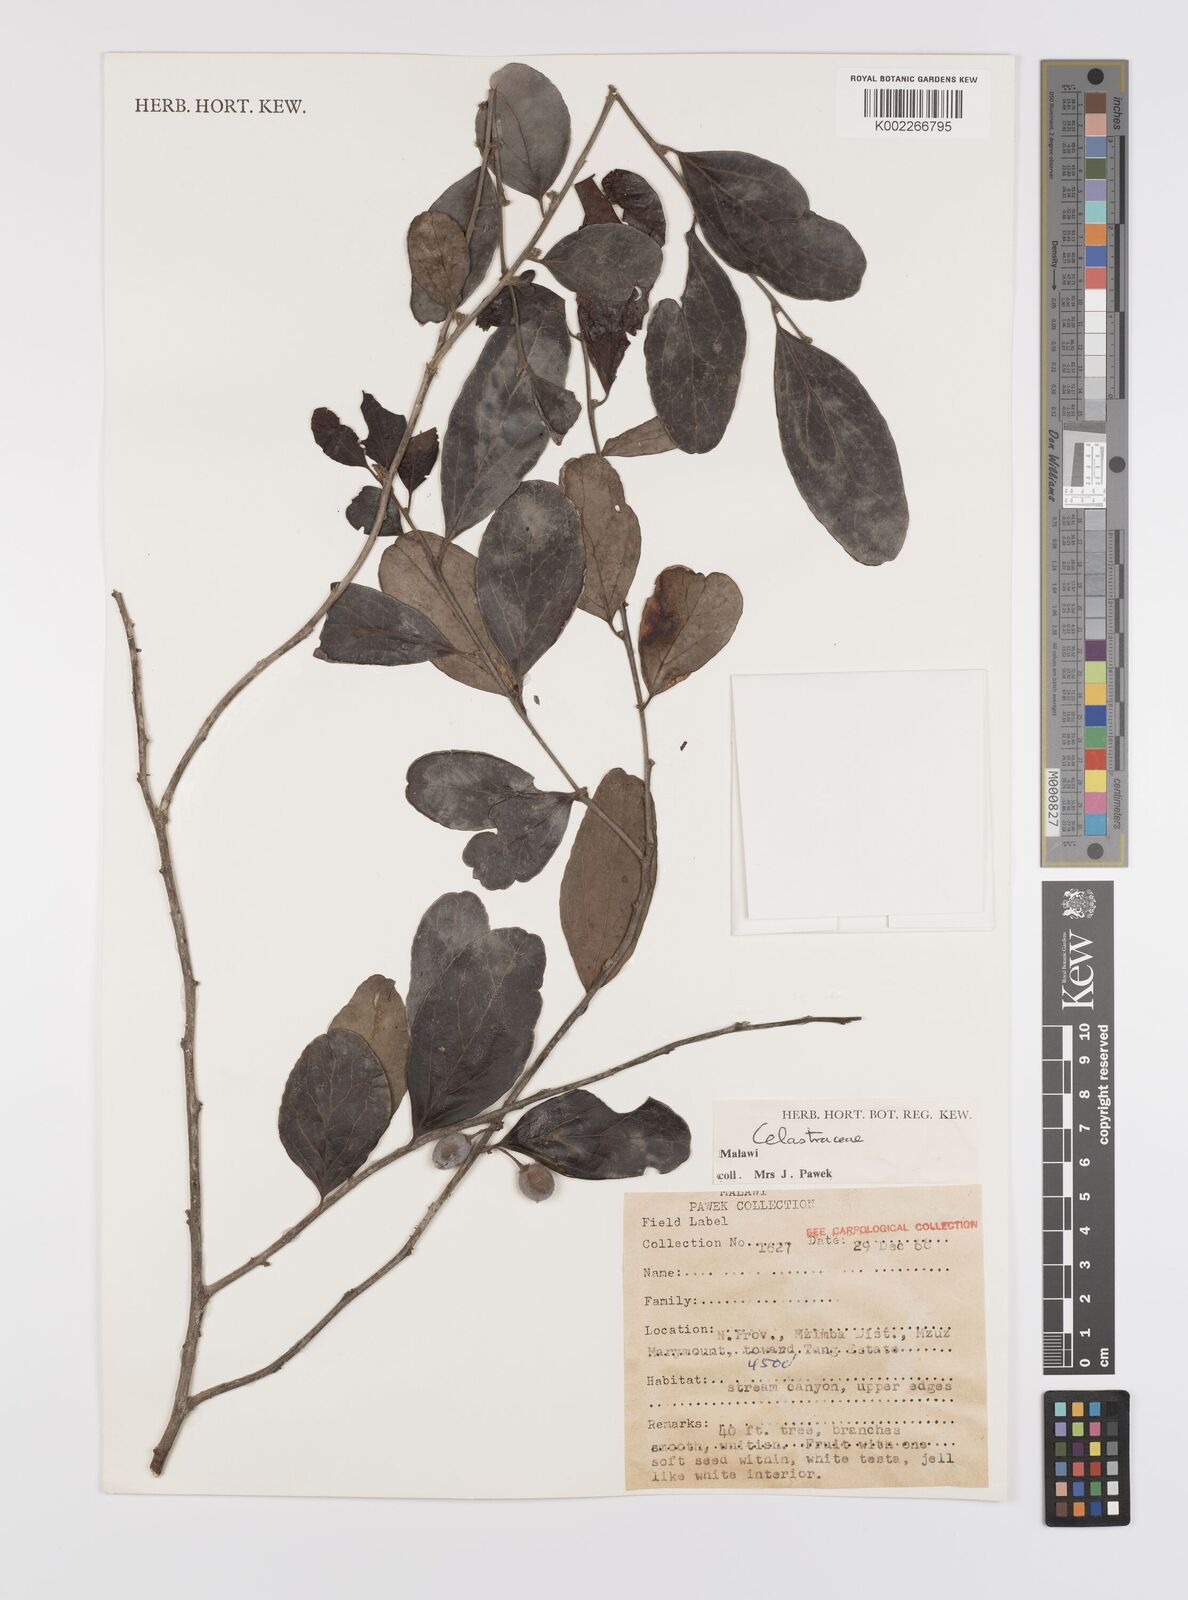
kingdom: Plantae
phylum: Tracheophyta
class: Magnoliopsida
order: Celastrales
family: Celastraceae
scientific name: Celastraceae
